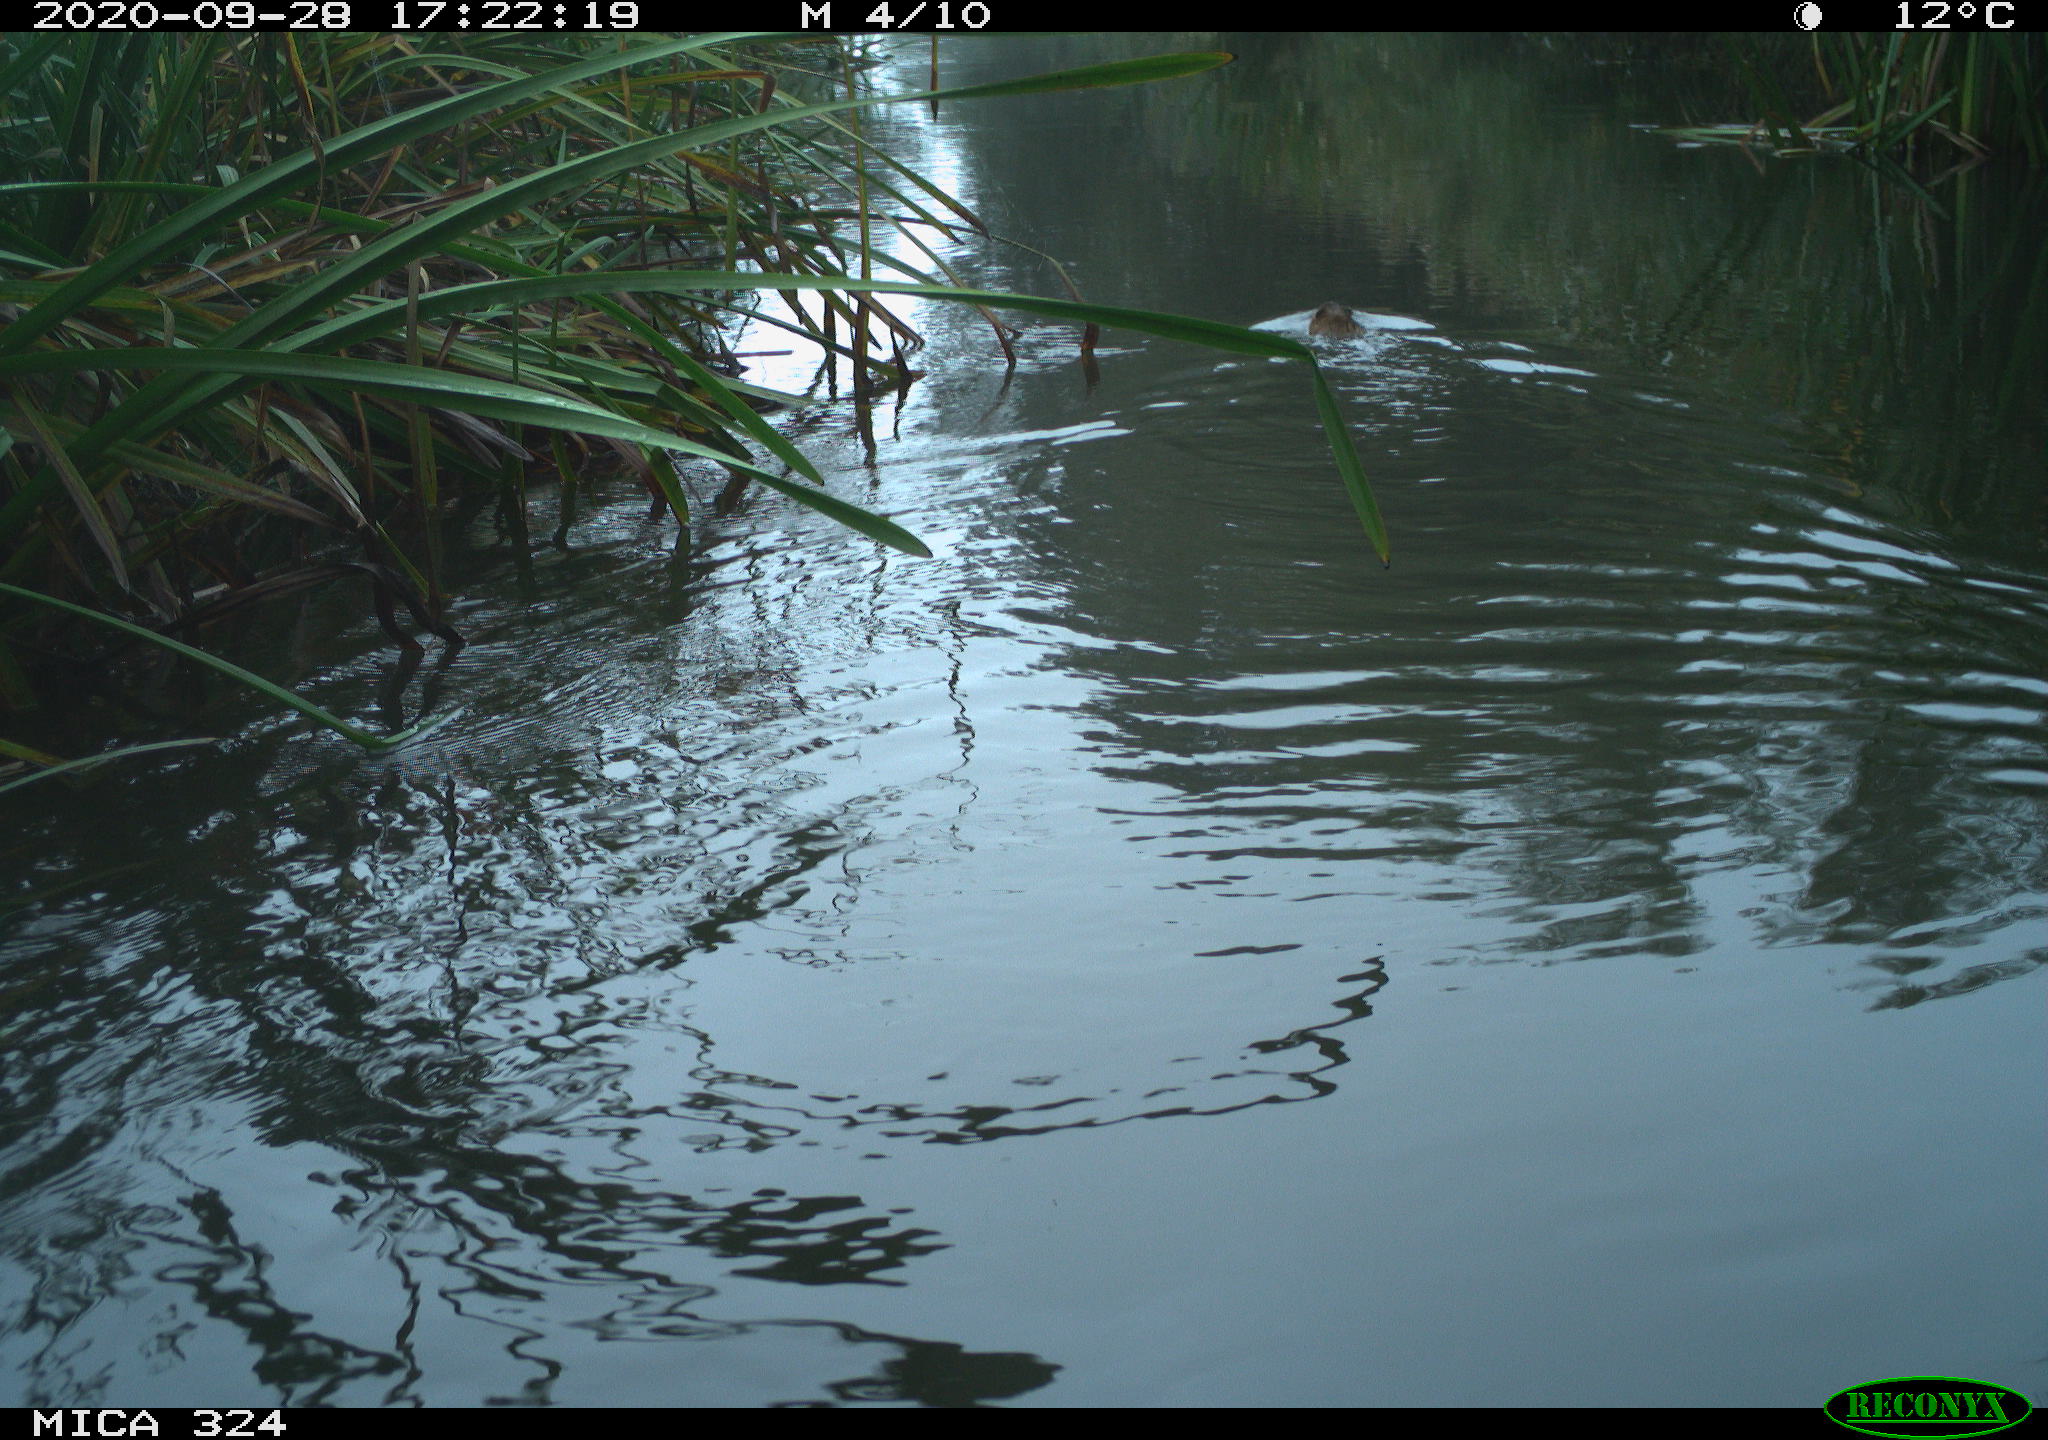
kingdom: Animalia
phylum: Chordata
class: Mammalia
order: Rodentia
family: Cricetidae
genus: Ondatra
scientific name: Ondatra zibethicus
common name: Muskrat
